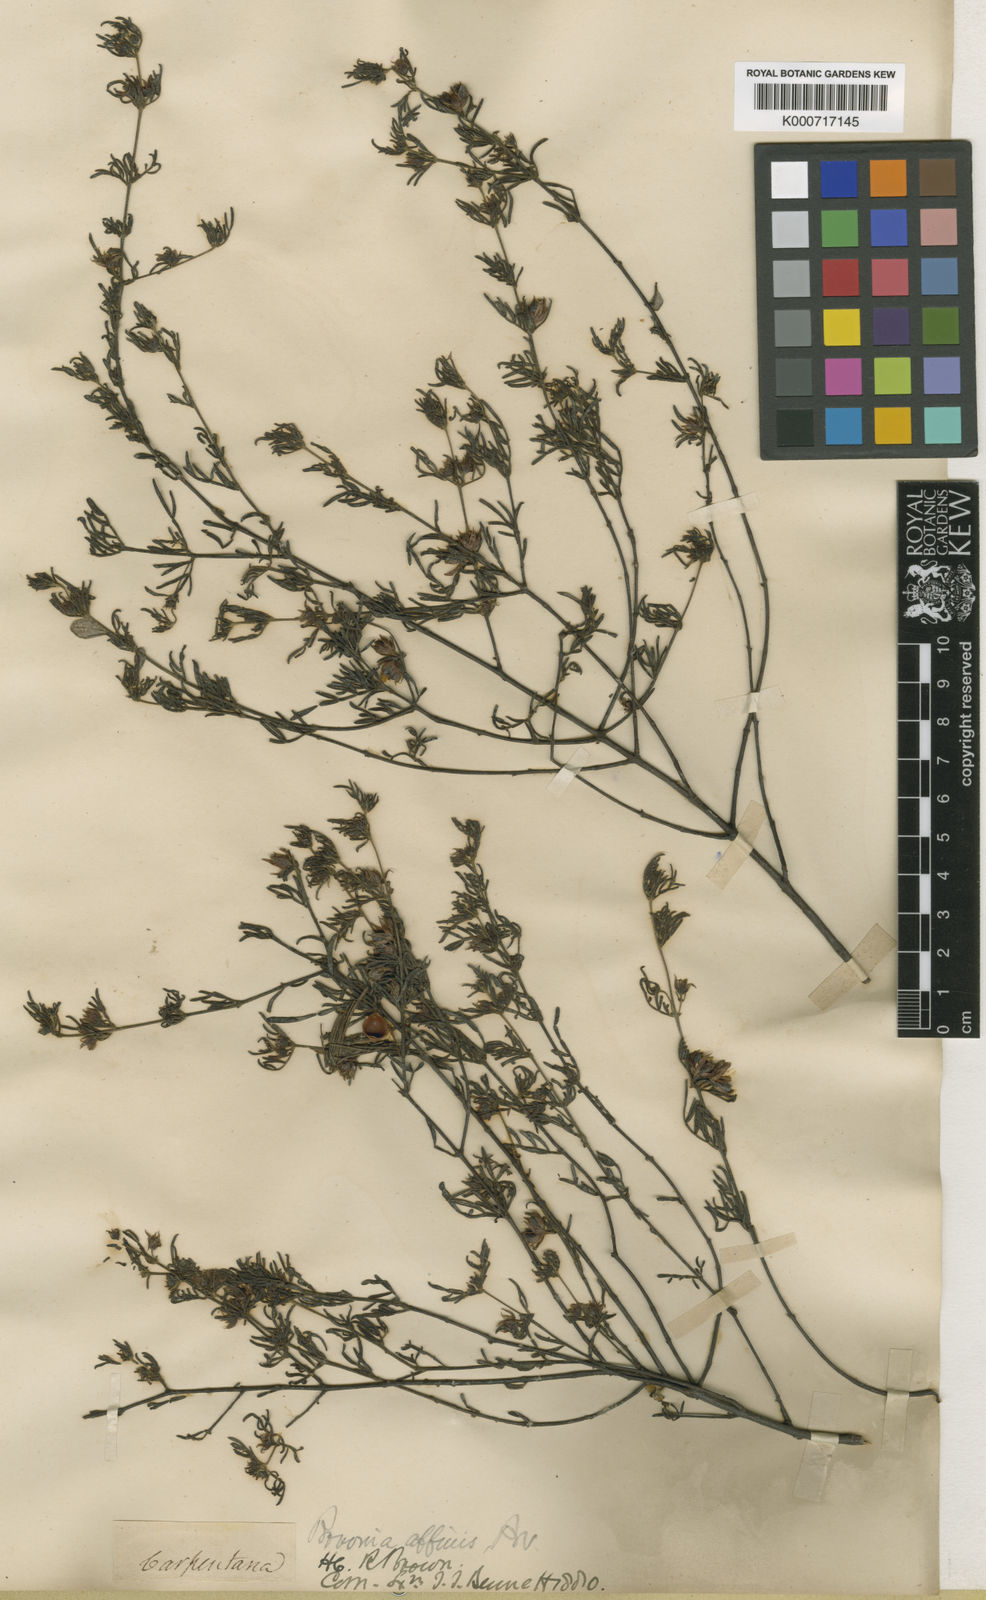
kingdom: Plantae
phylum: Tracheophyta
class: Magnoliopsida
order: Sapindales
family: Rutaceae
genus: Boronia
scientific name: Boronia lanuginosa
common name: Red boronia
